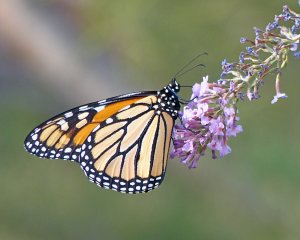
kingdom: Animalia
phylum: Arthropoda
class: Insecta
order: Lepidoptera
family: Nymphalidae
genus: Danaus
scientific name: Danaus plexippus
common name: Monarch
